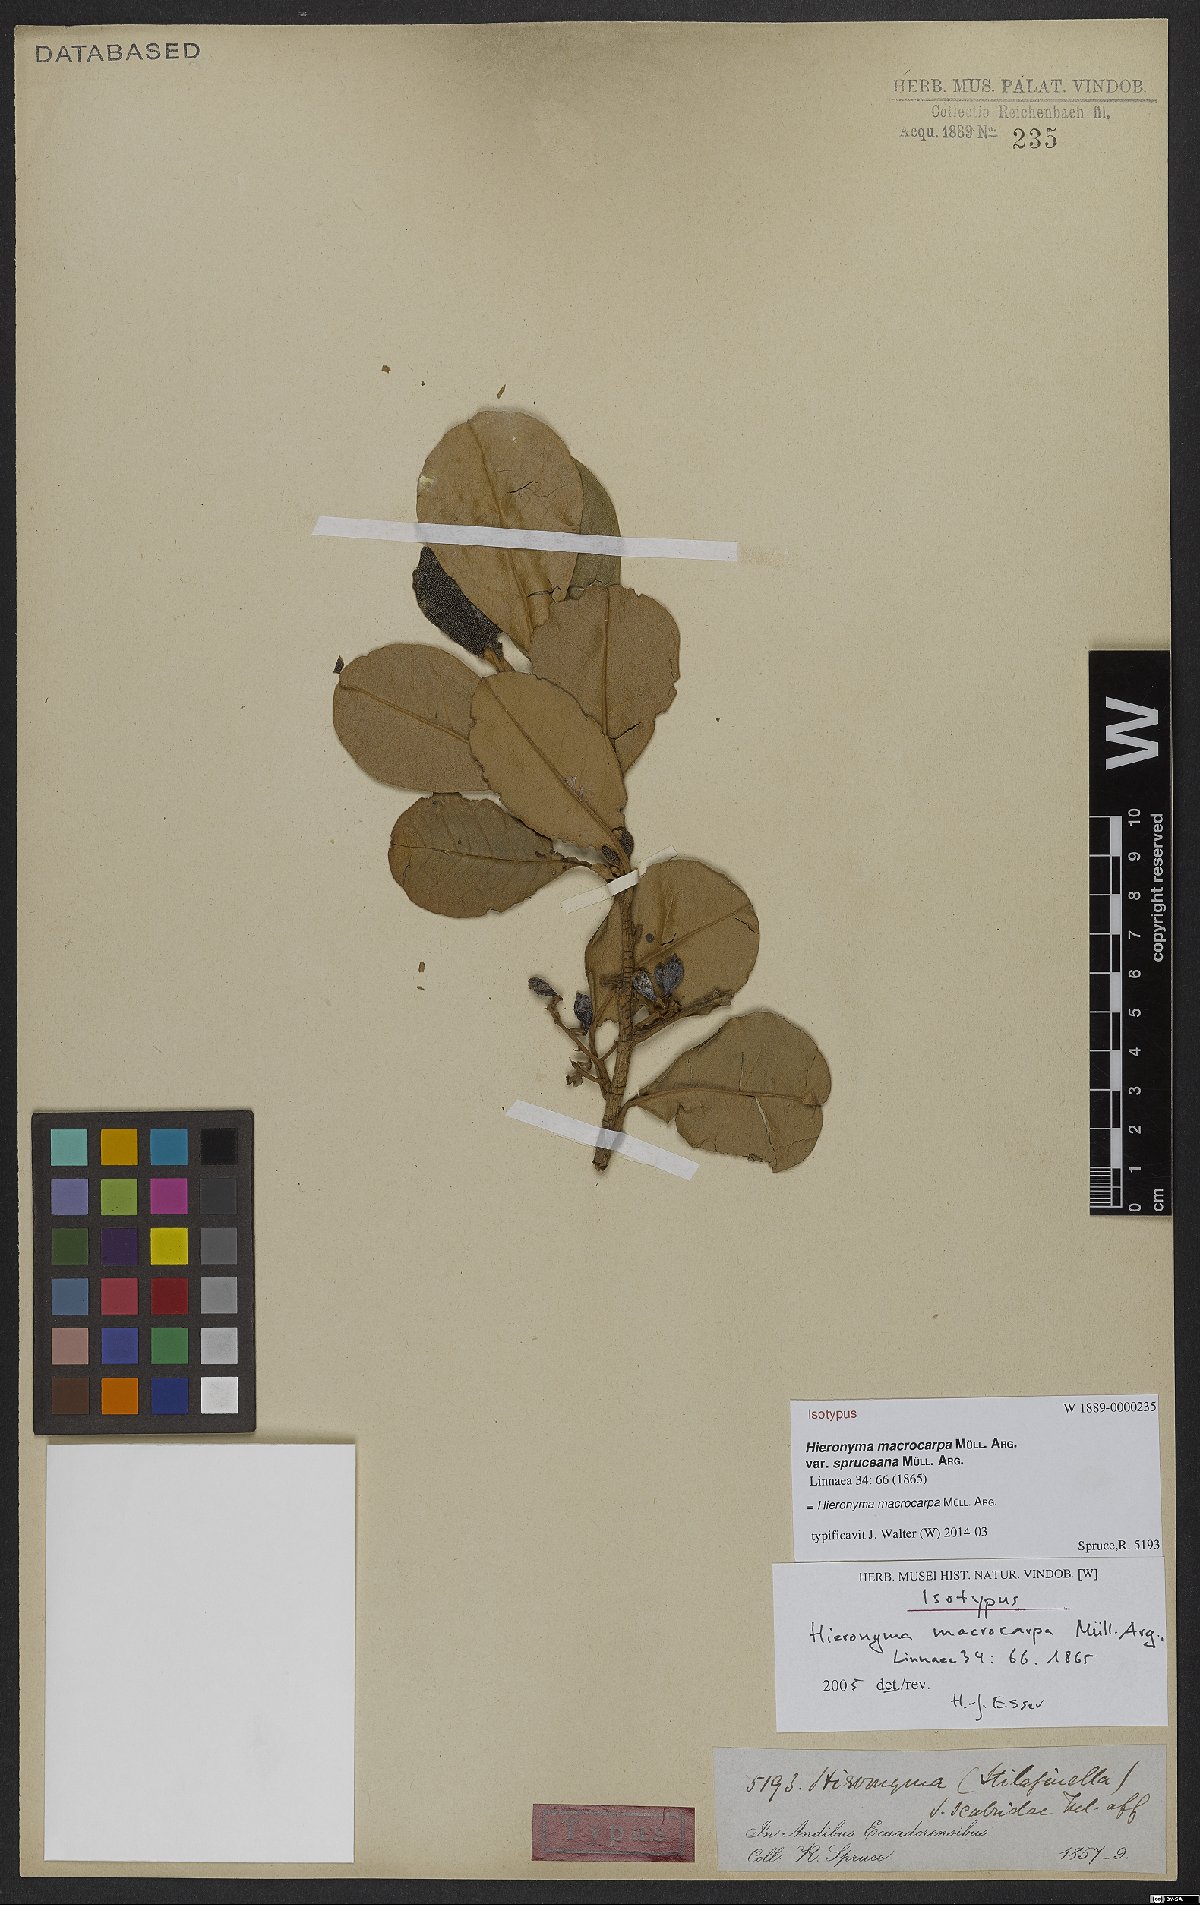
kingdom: Plantae
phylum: Tracheophyta
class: Magnoliopsida
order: Malpighiales
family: Phyllanthaceae
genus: Hieronyma
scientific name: Hieronyma macrocarpa
